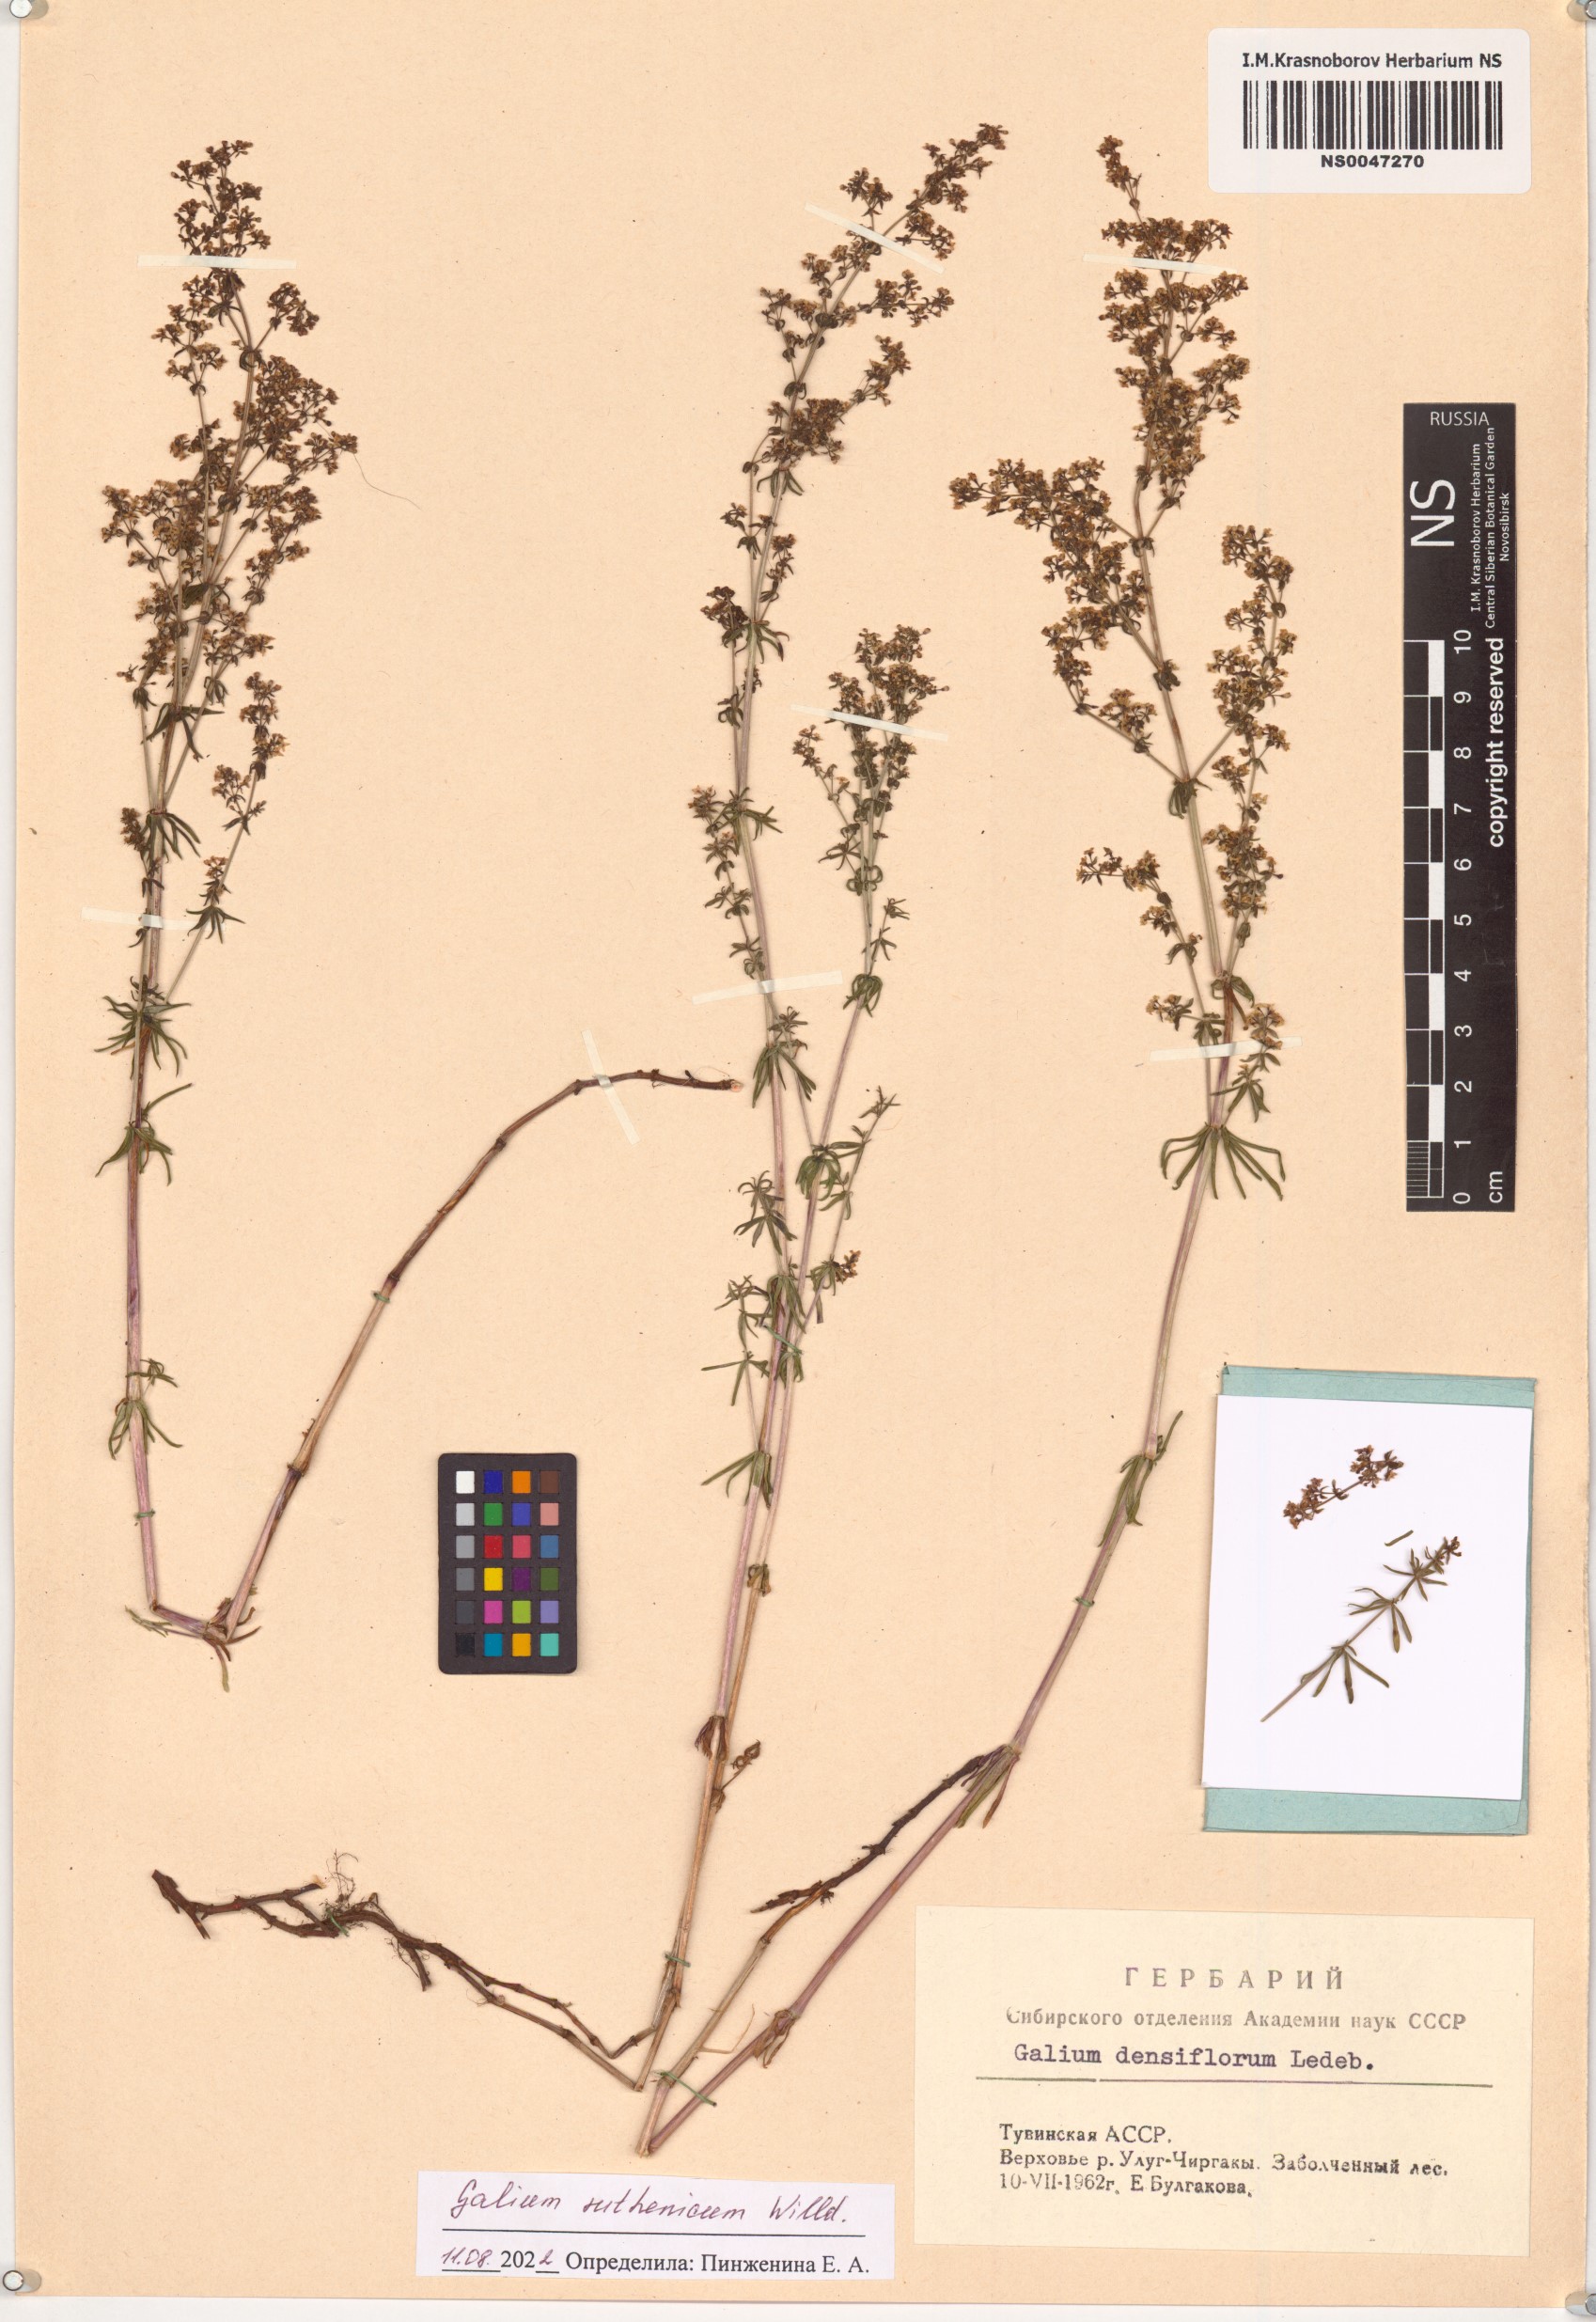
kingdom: Plantae
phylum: Tracheophyta
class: Magnoliopsida
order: Gentianales
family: Rubiaceae
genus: Galium
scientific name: Galium verum
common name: Lady's bedstraw
